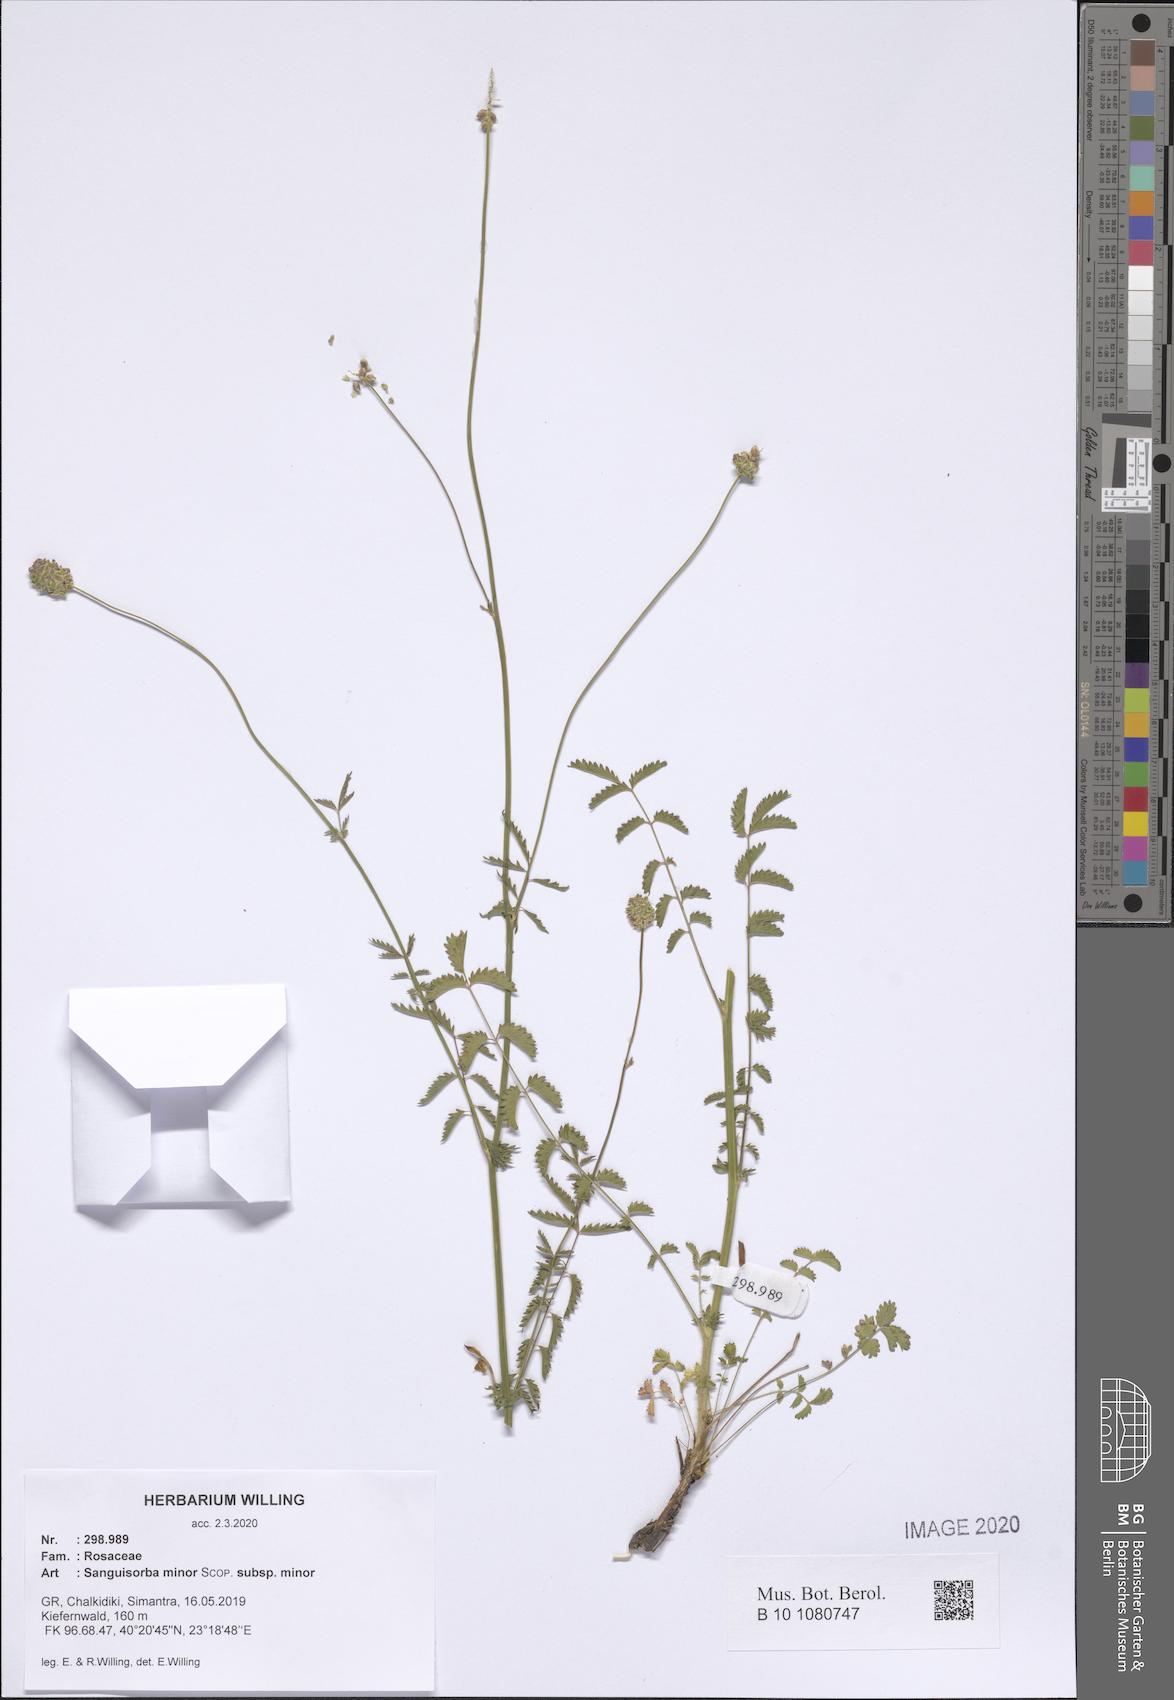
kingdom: Plantae
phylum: Tracheophyta
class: Magnoliopsida
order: Rosales
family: Rosaceae
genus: Poterium
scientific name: Poterium sanguisorba
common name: Salad burnet
